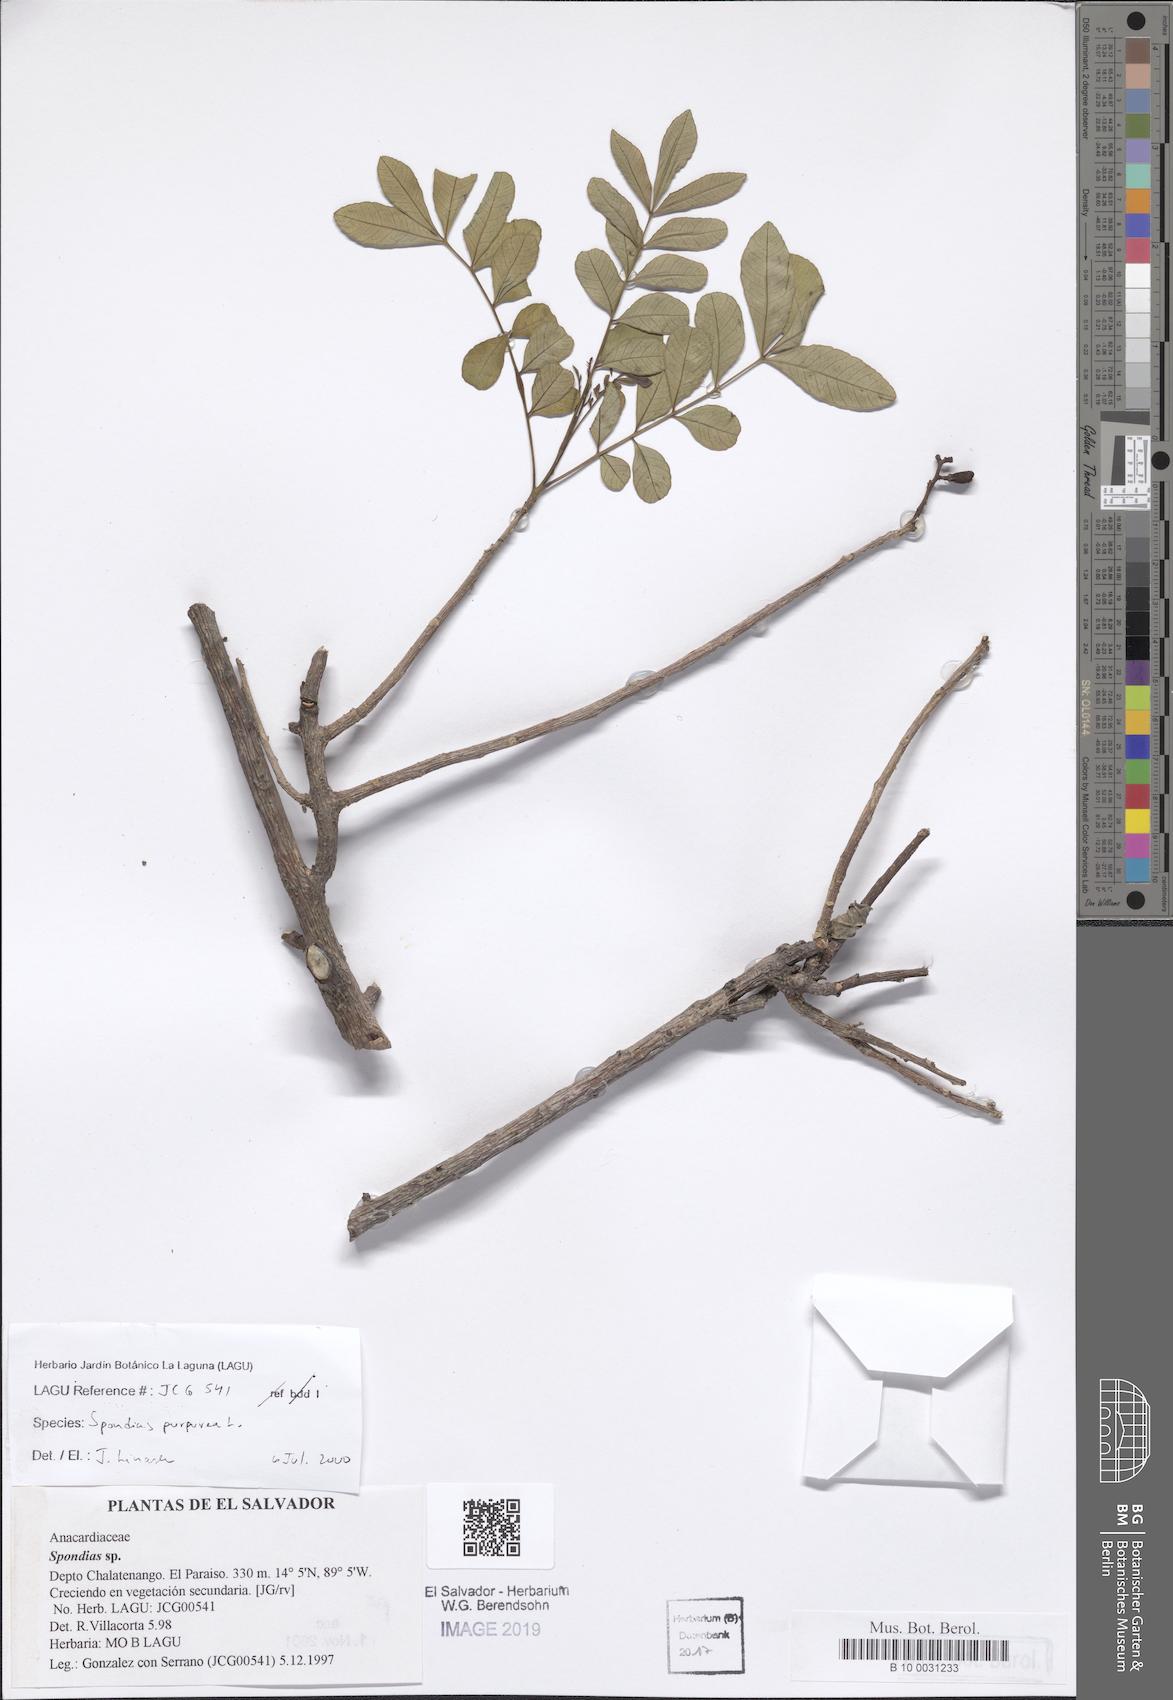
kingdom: Plantae
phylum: Tracheophyta
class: Magnoliopsida
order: Sapindales
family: Anacardiaceae
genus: Spondias
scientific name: Spondias purpurea
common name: Purple mombin
